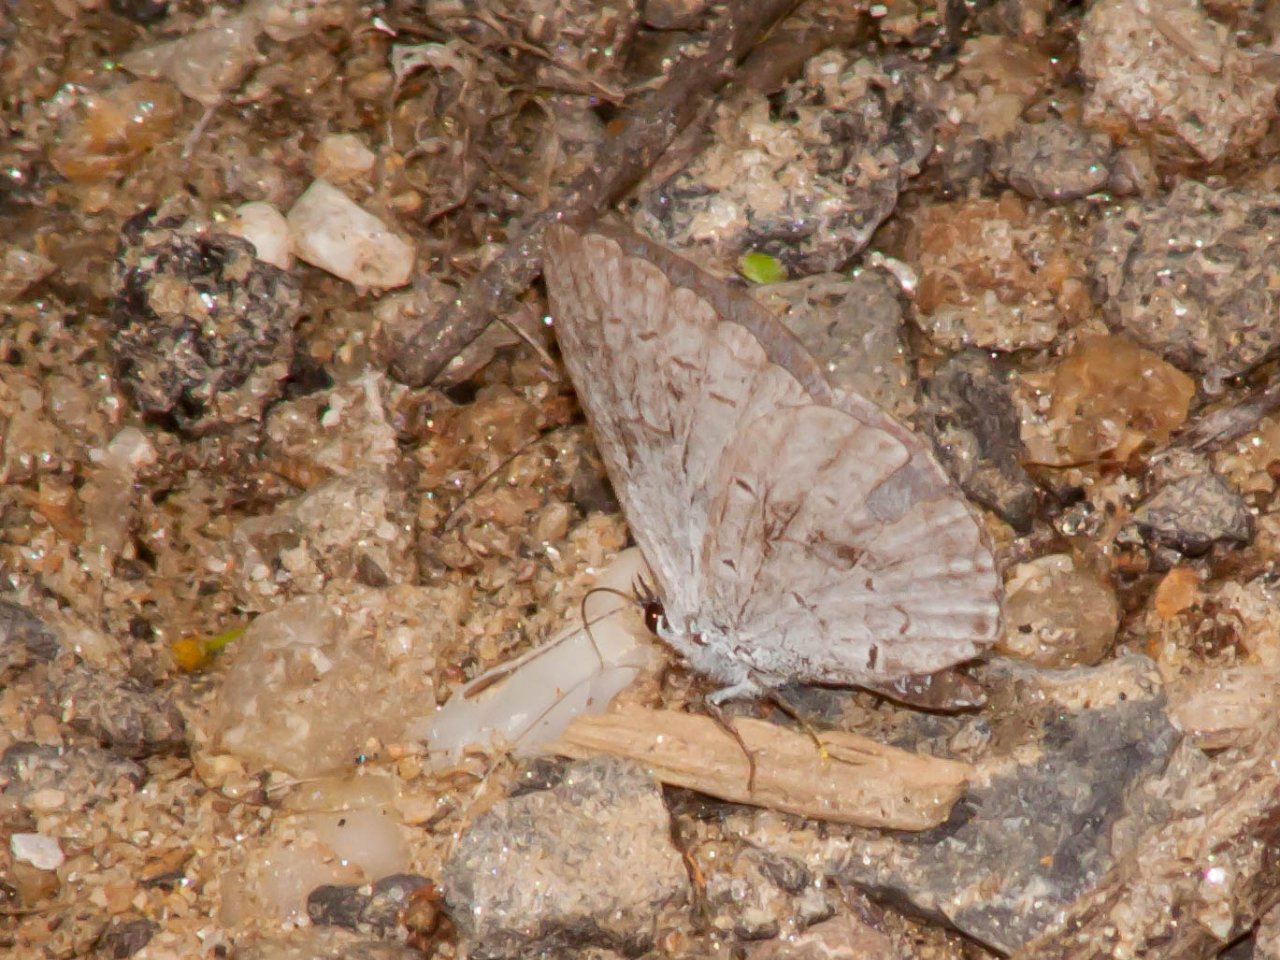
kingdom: Animalia
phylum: Arthropoda
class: Insecta
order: Lepidoptera
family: Lycaenidae
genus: Cyaniris
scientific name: Cyaniris neglecta
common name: Summer Azure
